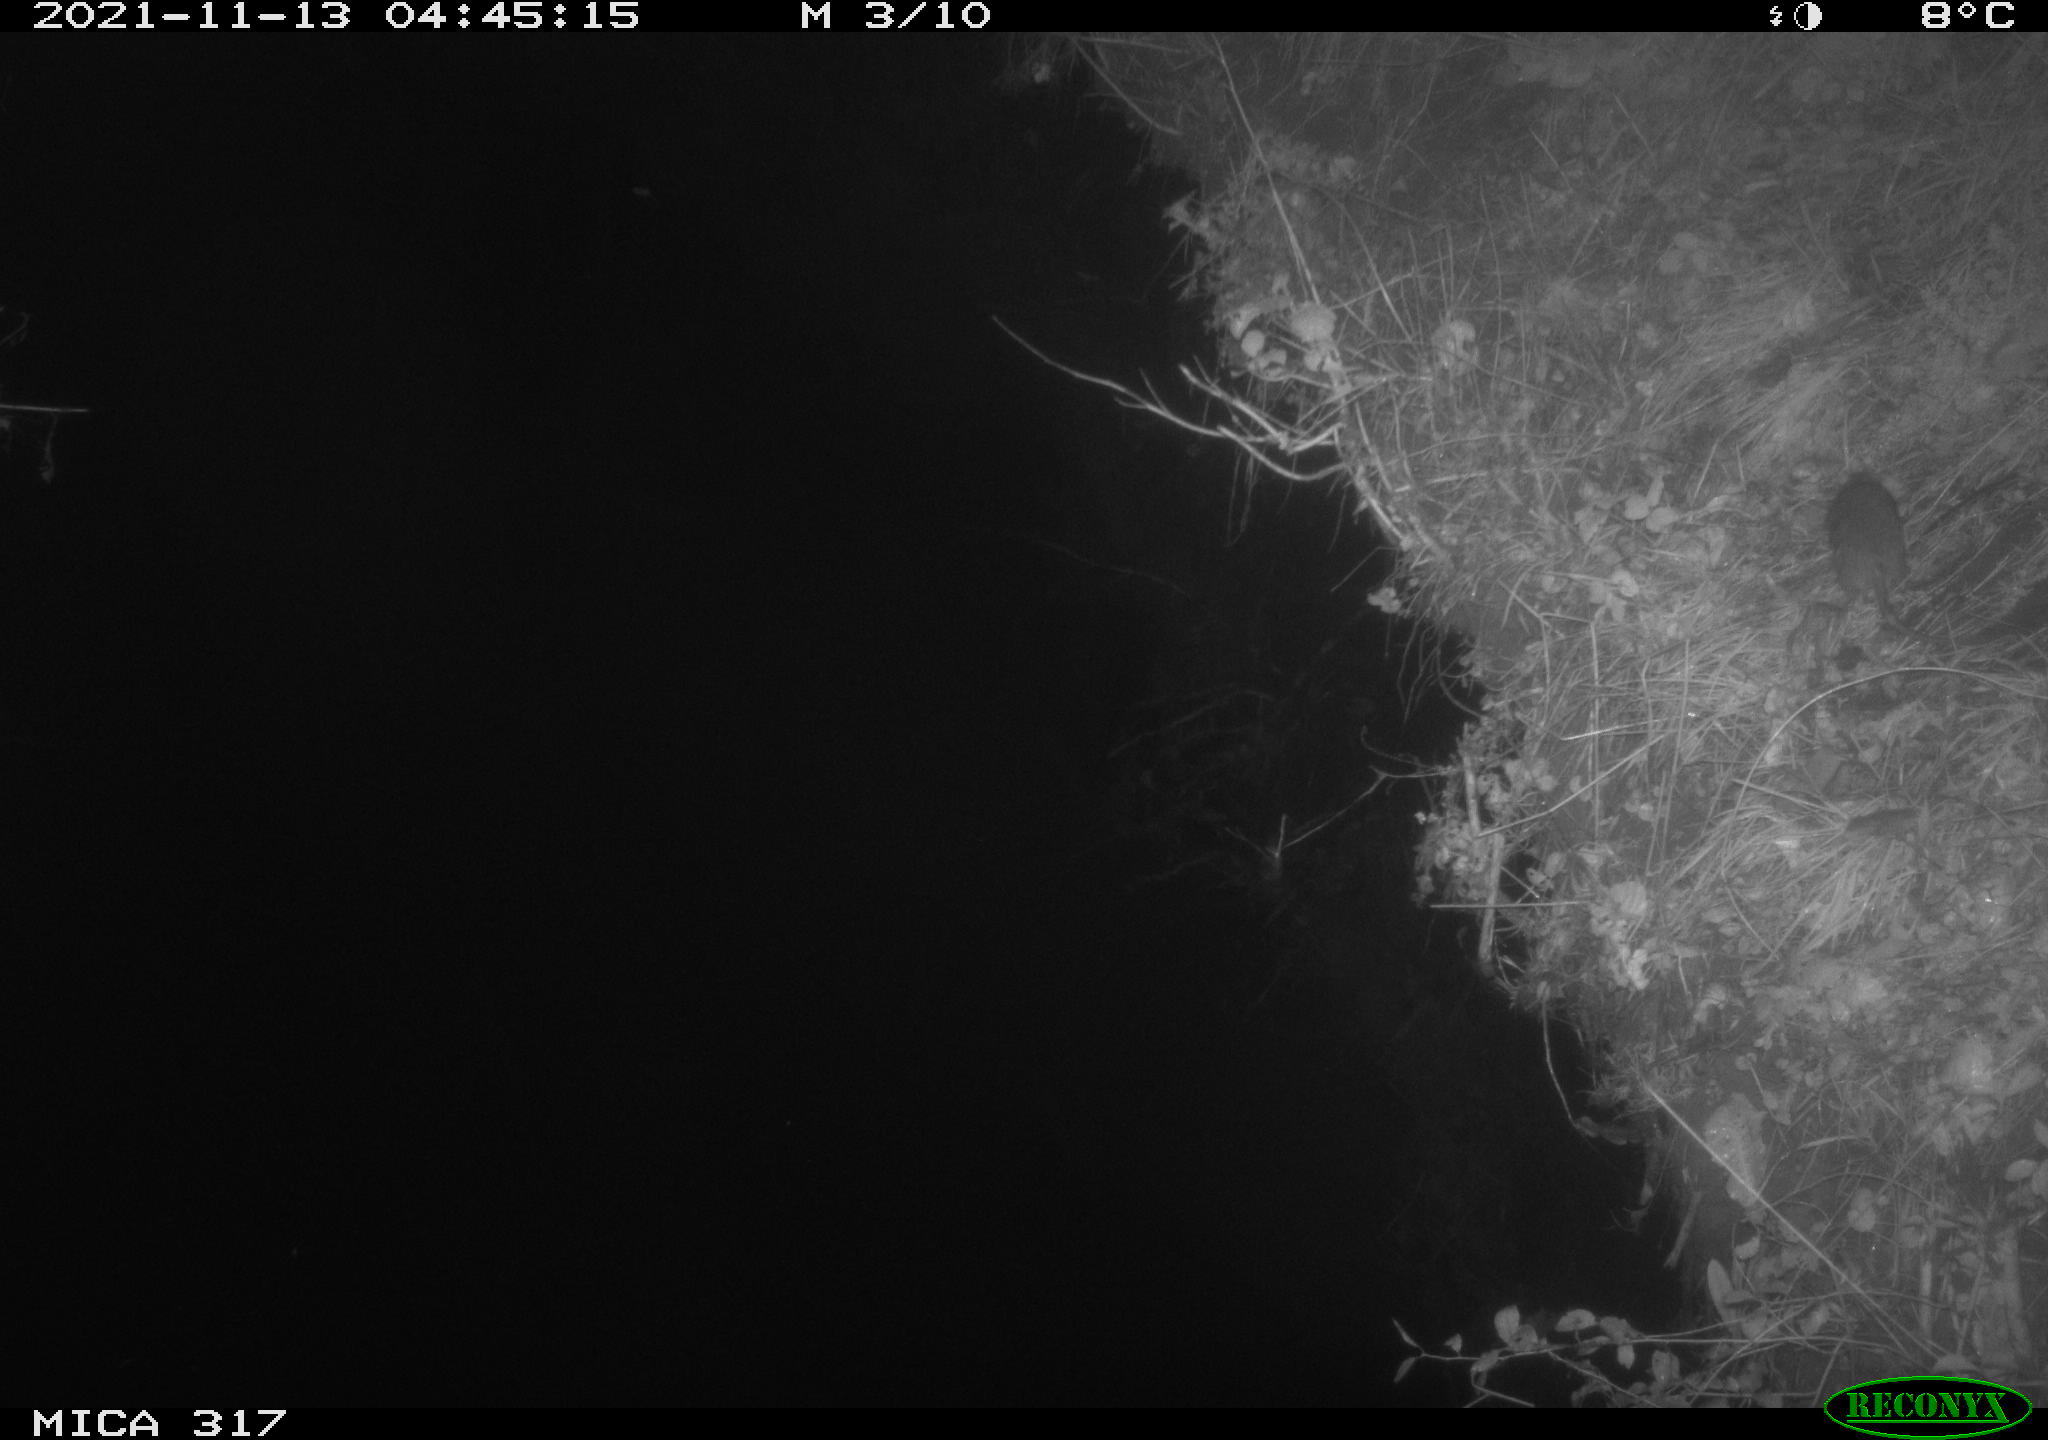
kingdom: Animalia
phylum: Chordata
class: Mammalia
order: Rodentia
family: Muridae
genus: Rattus
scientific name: Rattus norvegicus
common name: Brown rat
